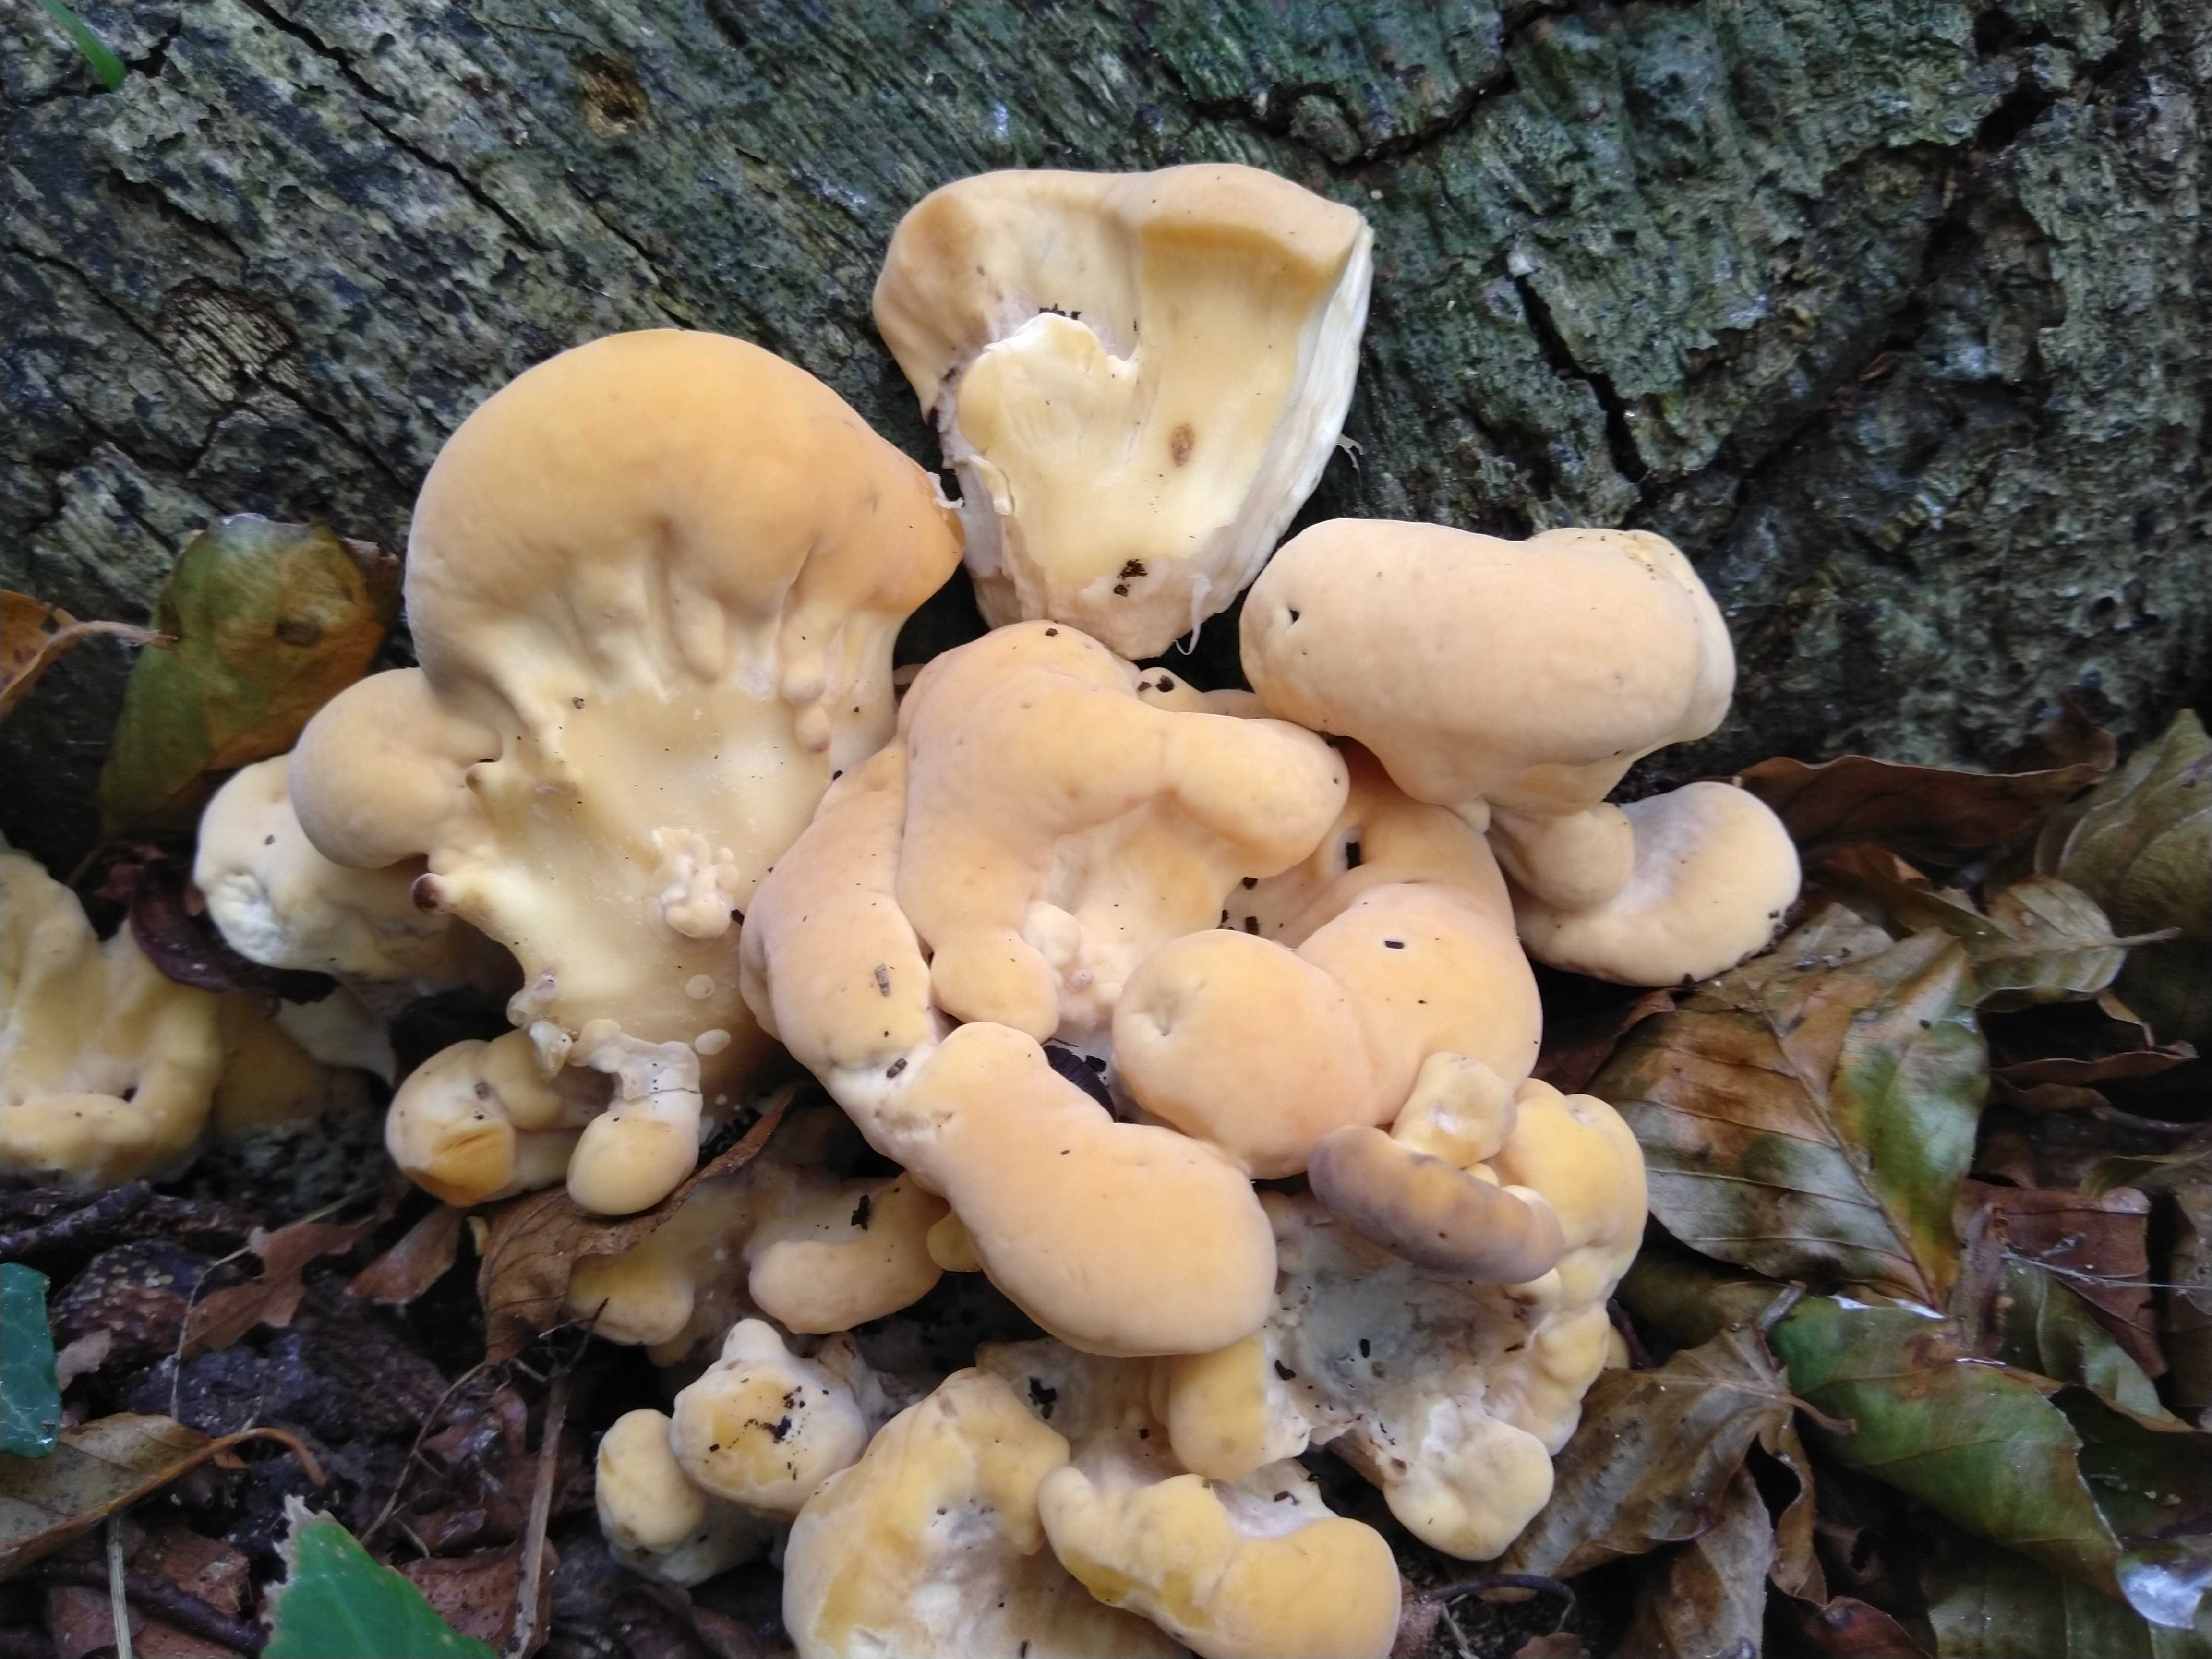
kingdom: Fungi
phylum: Basidiomycota
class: Agaricomycetes
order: Polyporales
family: Meripilaceae
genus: Meripilus
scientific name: Meripilus giganteus
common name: kæmpeporesvamp
